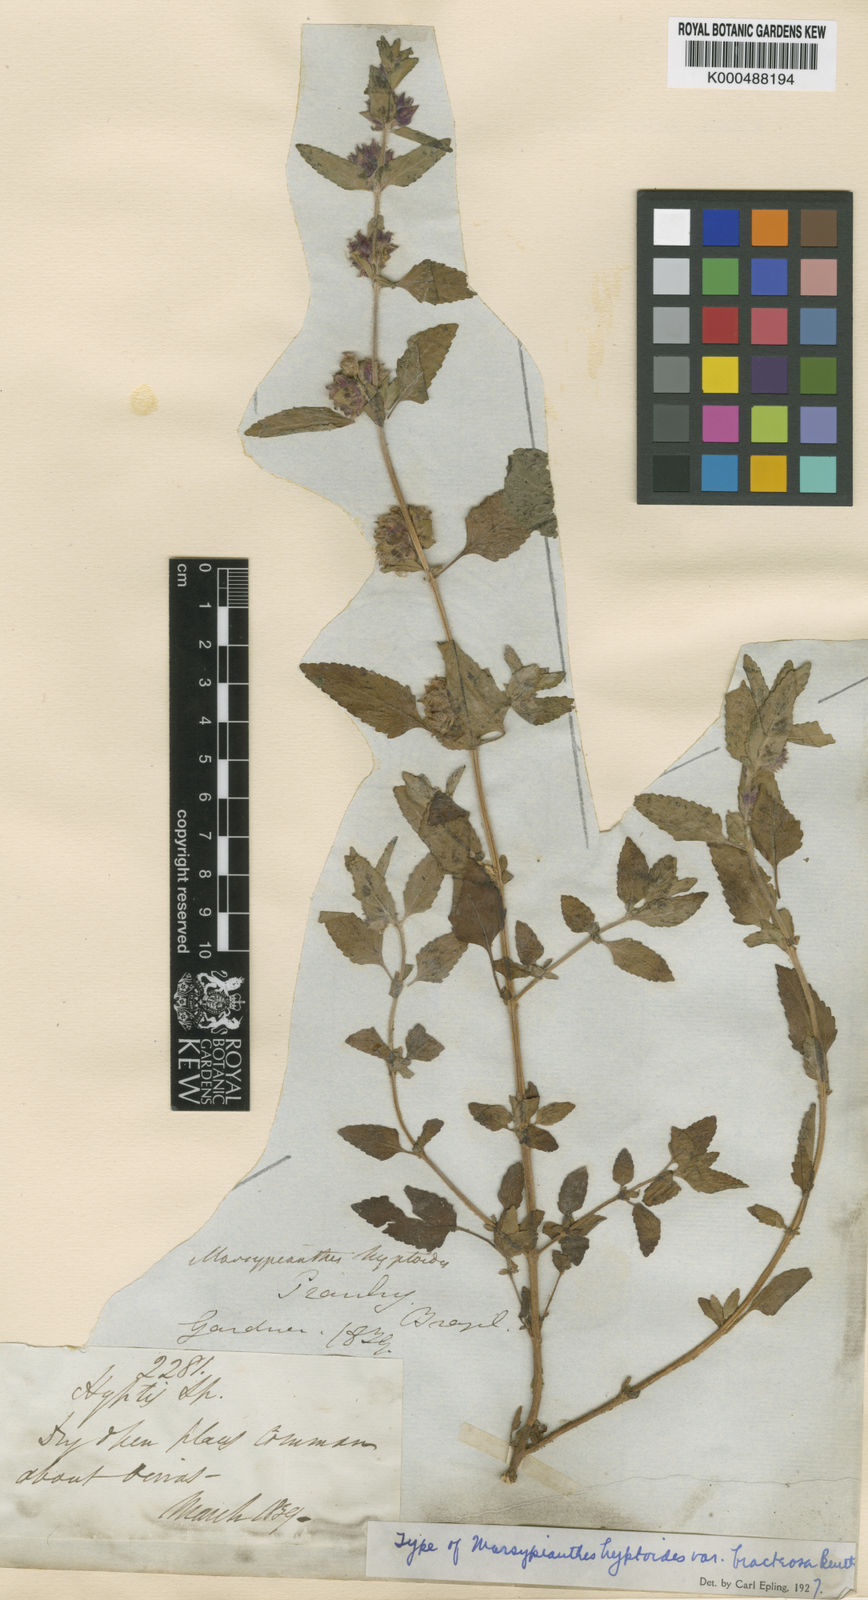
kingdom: Plantae
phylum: Tracheophyta
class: Magnoliopsida
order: Lamiales
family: Lamiaceae
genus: Marsypianthes
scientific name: Marsypianthes chamaedrys
